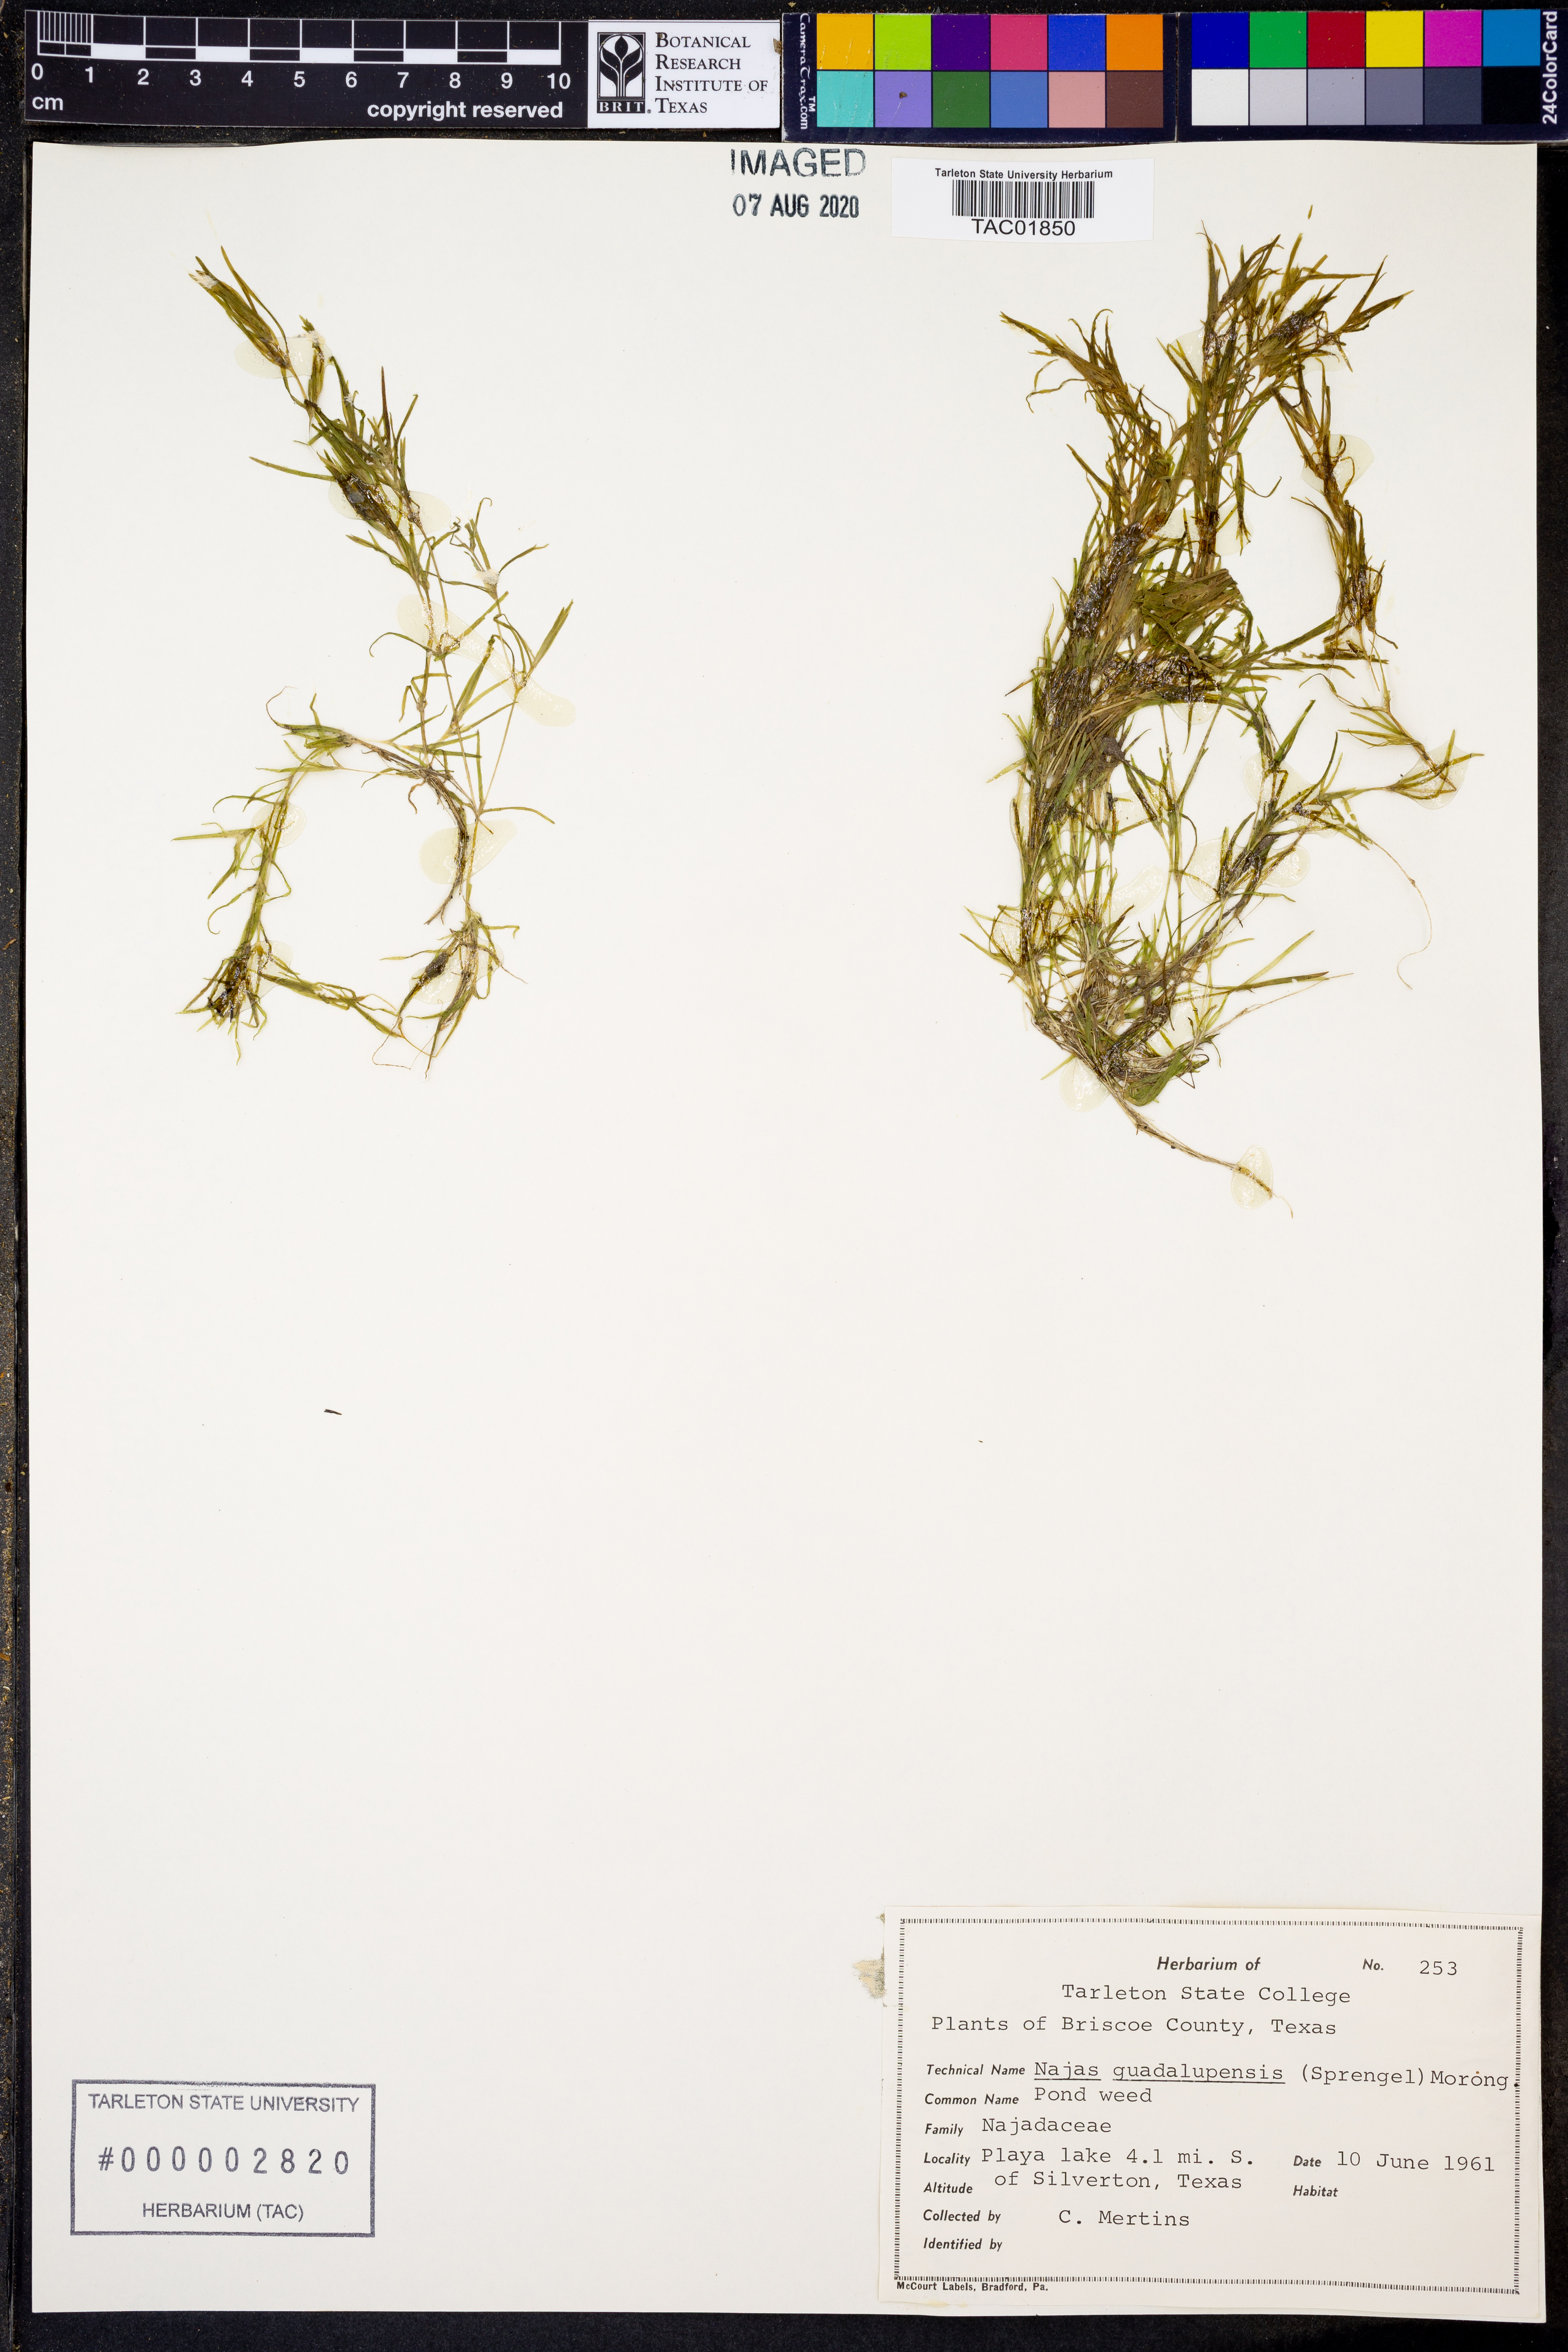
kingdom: Plantae
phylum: Tracheophyta
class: Liliopsida
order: Alismatales
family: Hydrocharitaceae
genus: Najas
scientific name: Najas guadalupensis
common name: Southern naiad
